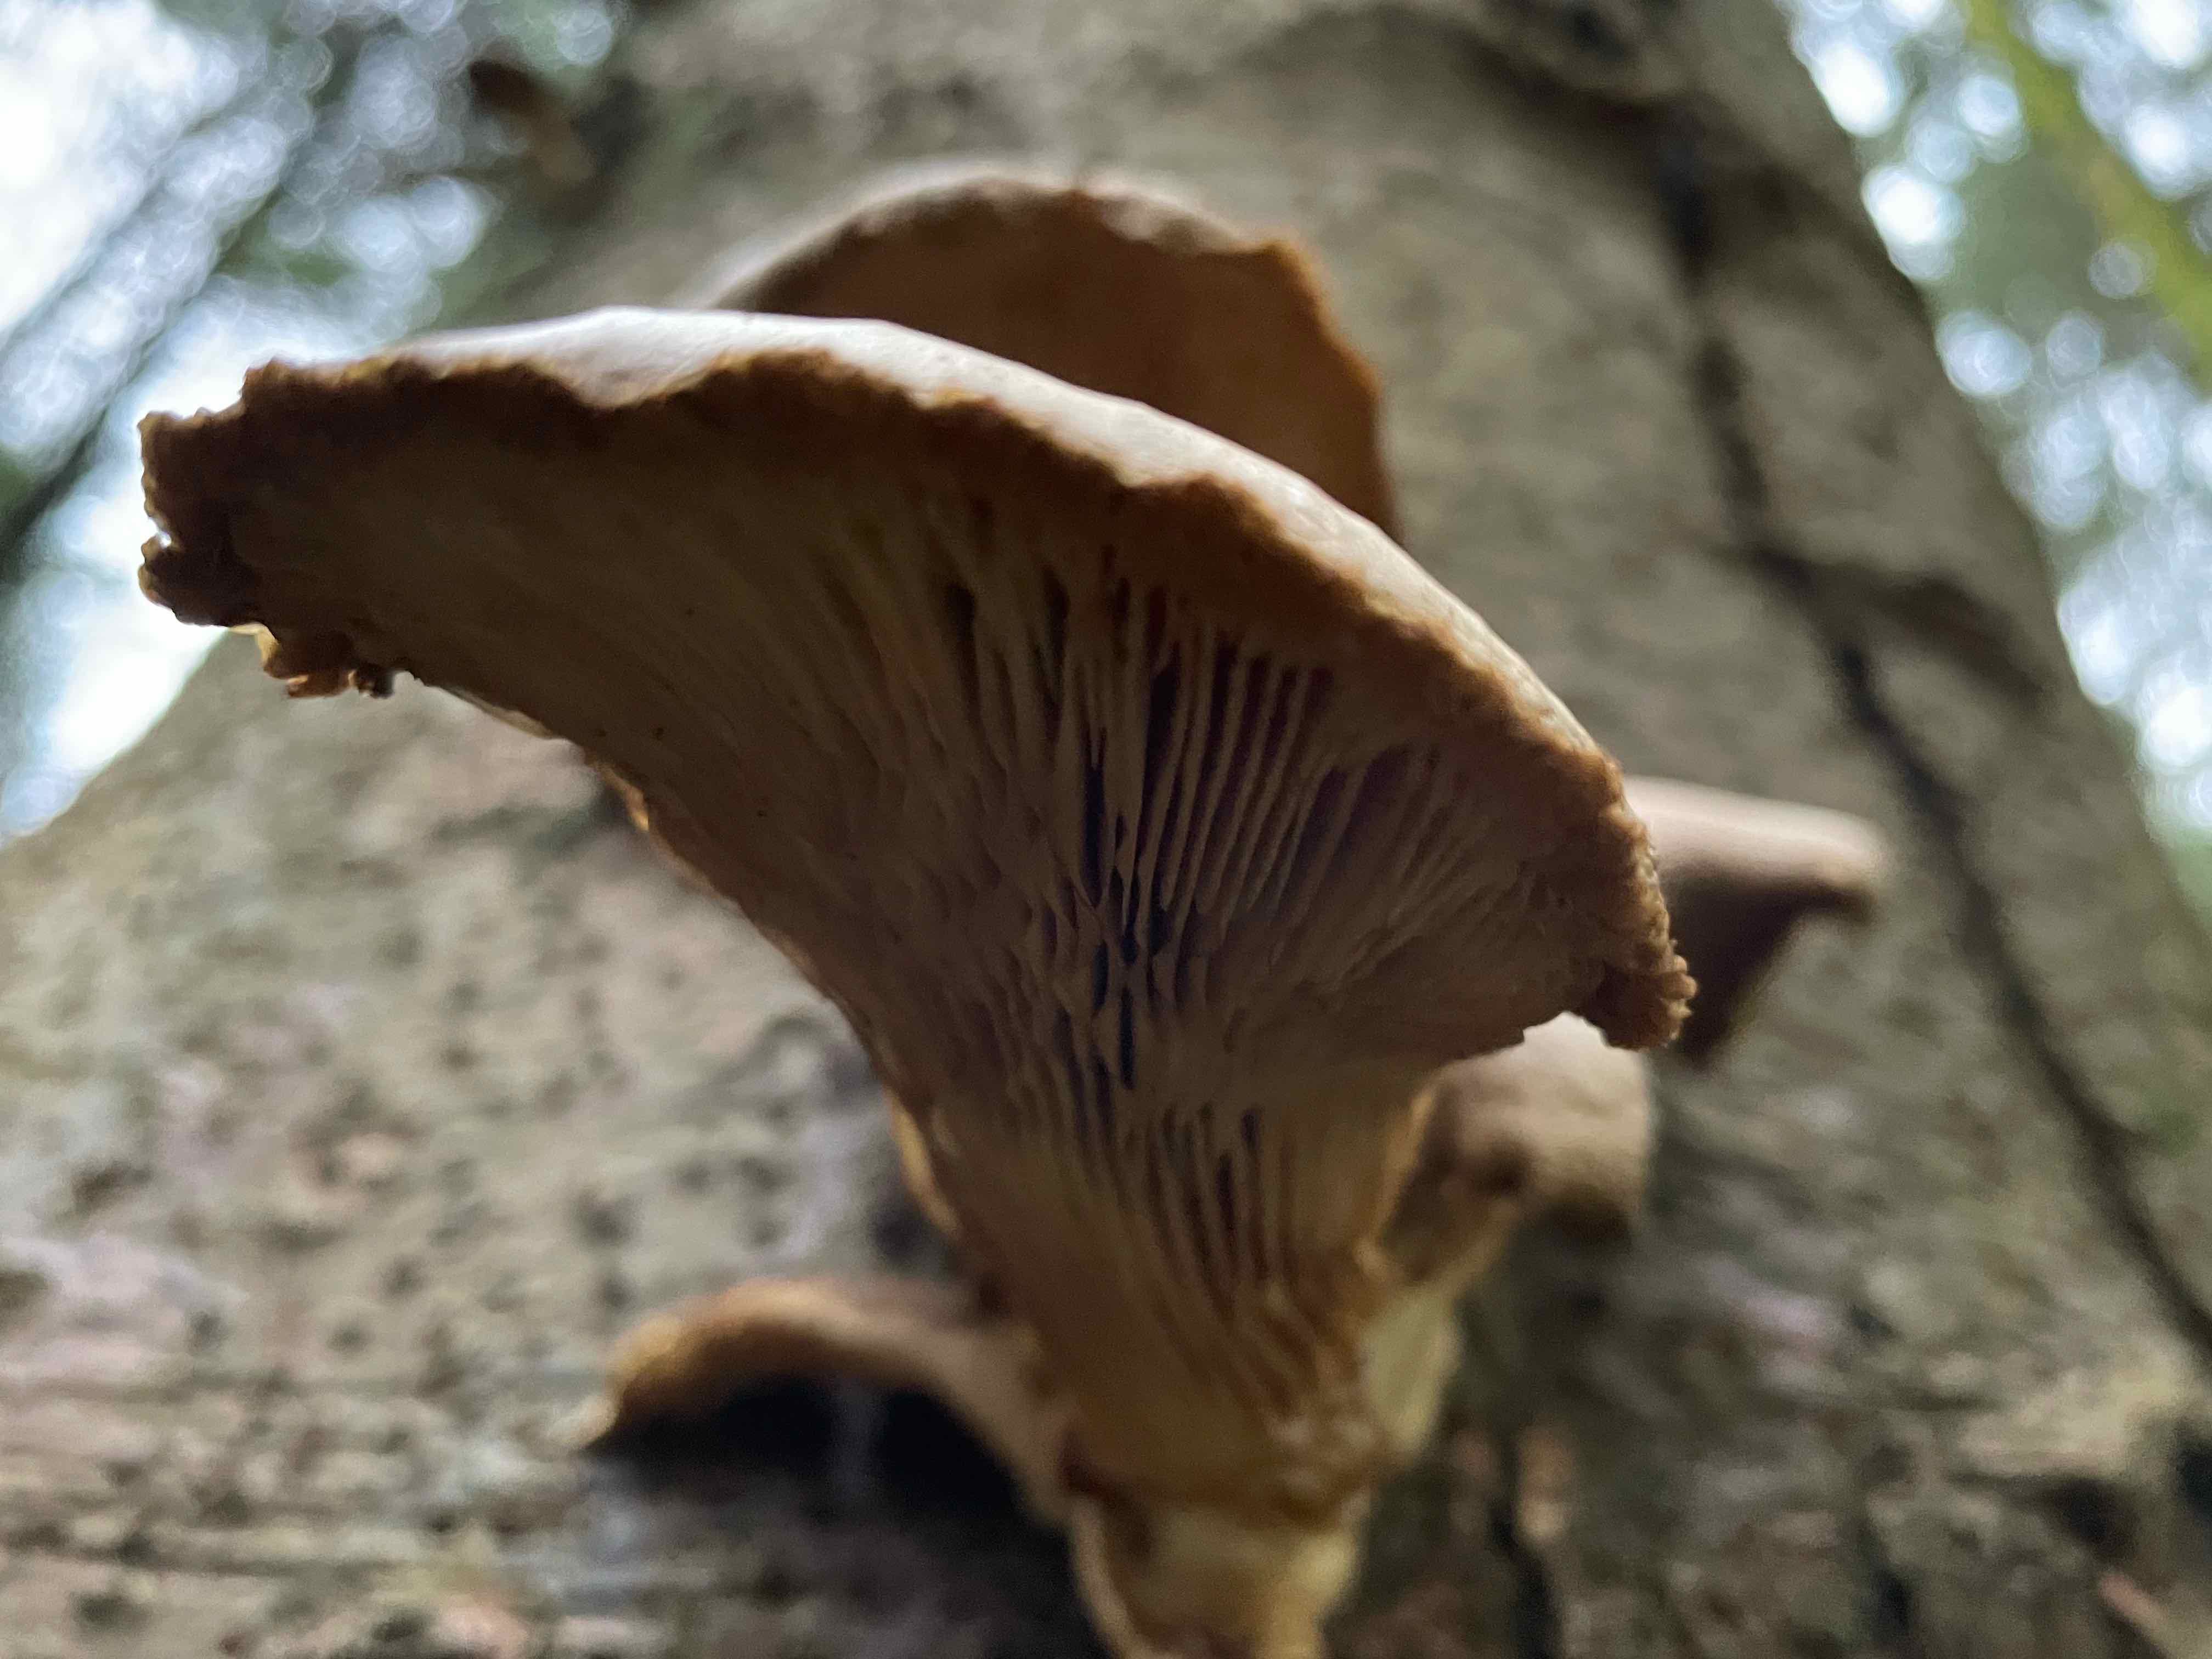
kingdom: Fungi
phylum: Basidiomycota
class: Agaricomycetes
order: Agaricales
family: Pleurotaceae
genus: Pleurotus
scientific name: Pleurotus ostreatus
